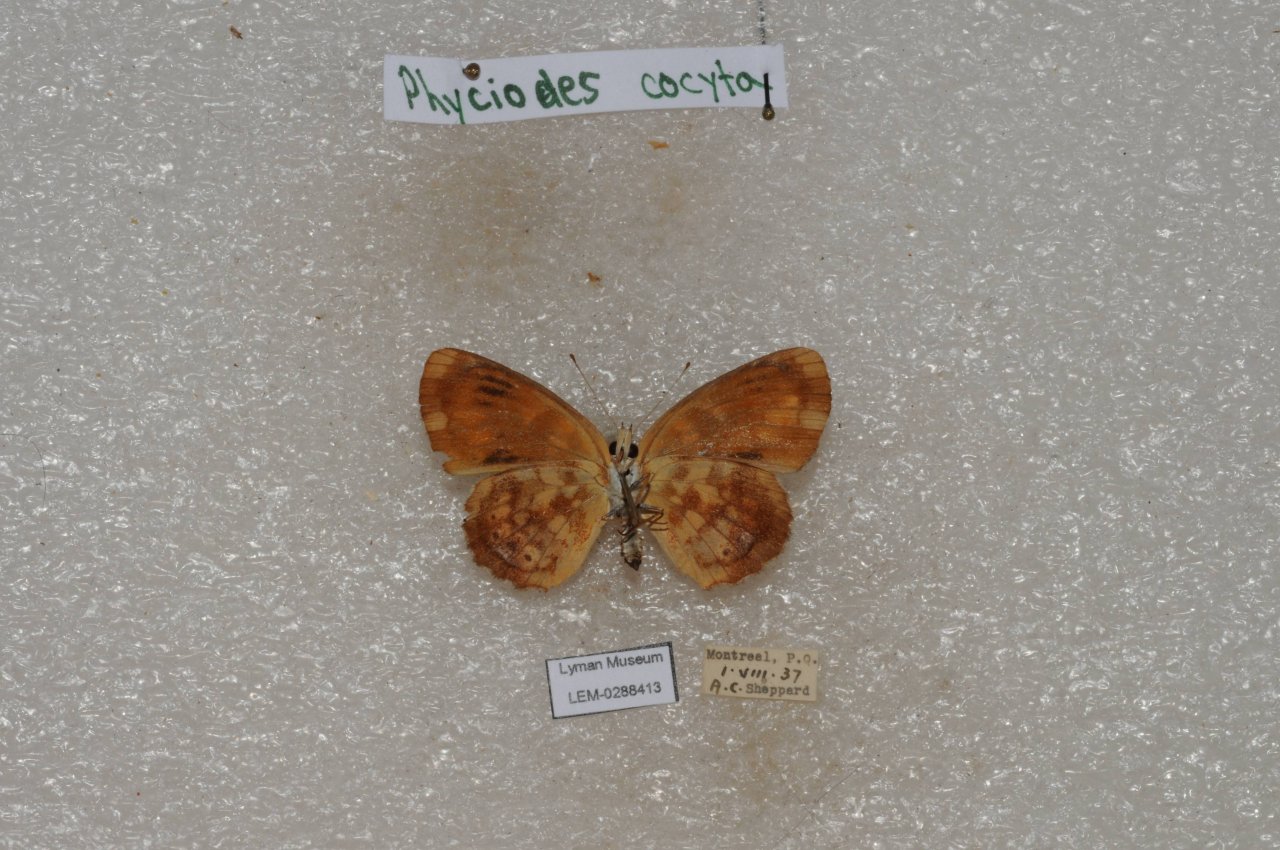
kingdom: Animalia
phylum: Arthropoda
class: Insecta
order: Lepidoptera
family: Nymphalidae
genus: Phyciodes
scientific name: Phyciodes tharos
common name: Northern Crescent
